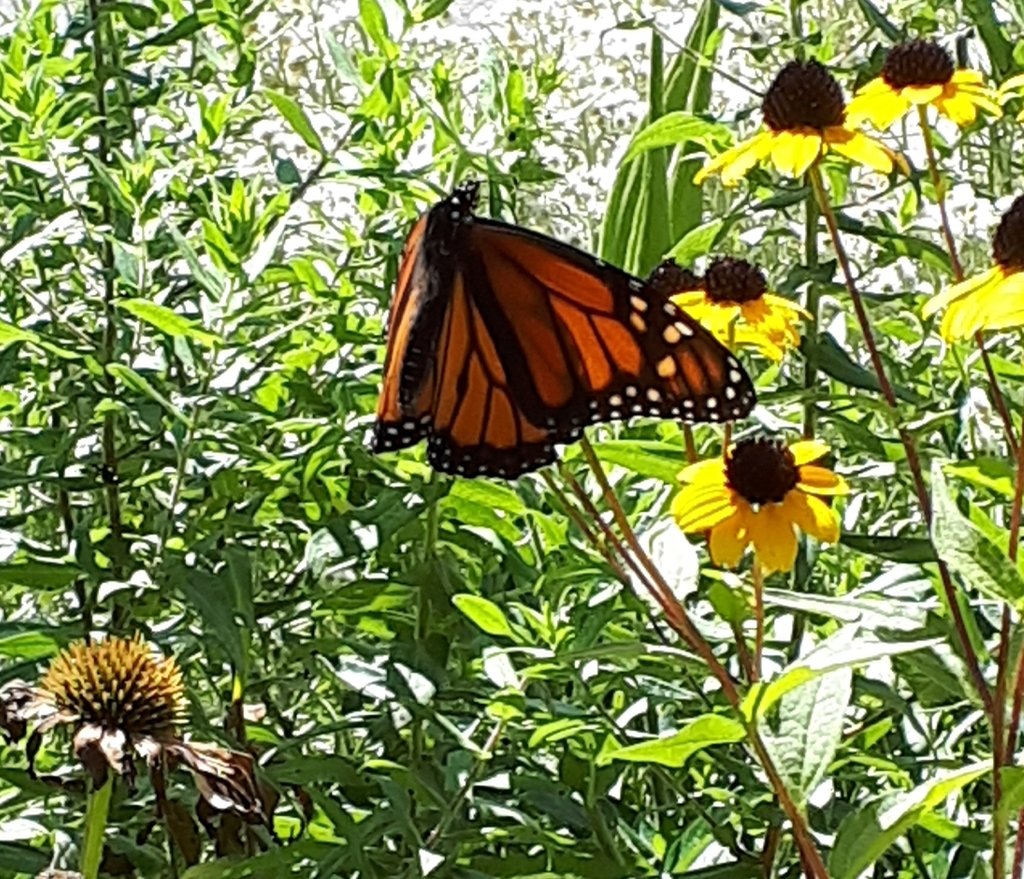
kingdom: Animalia
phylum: Arthropoda
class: Insecta
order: Lepidoptera
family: Nymphalidae
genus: Danaus
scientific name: Danaus plexippus
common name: Monarch
